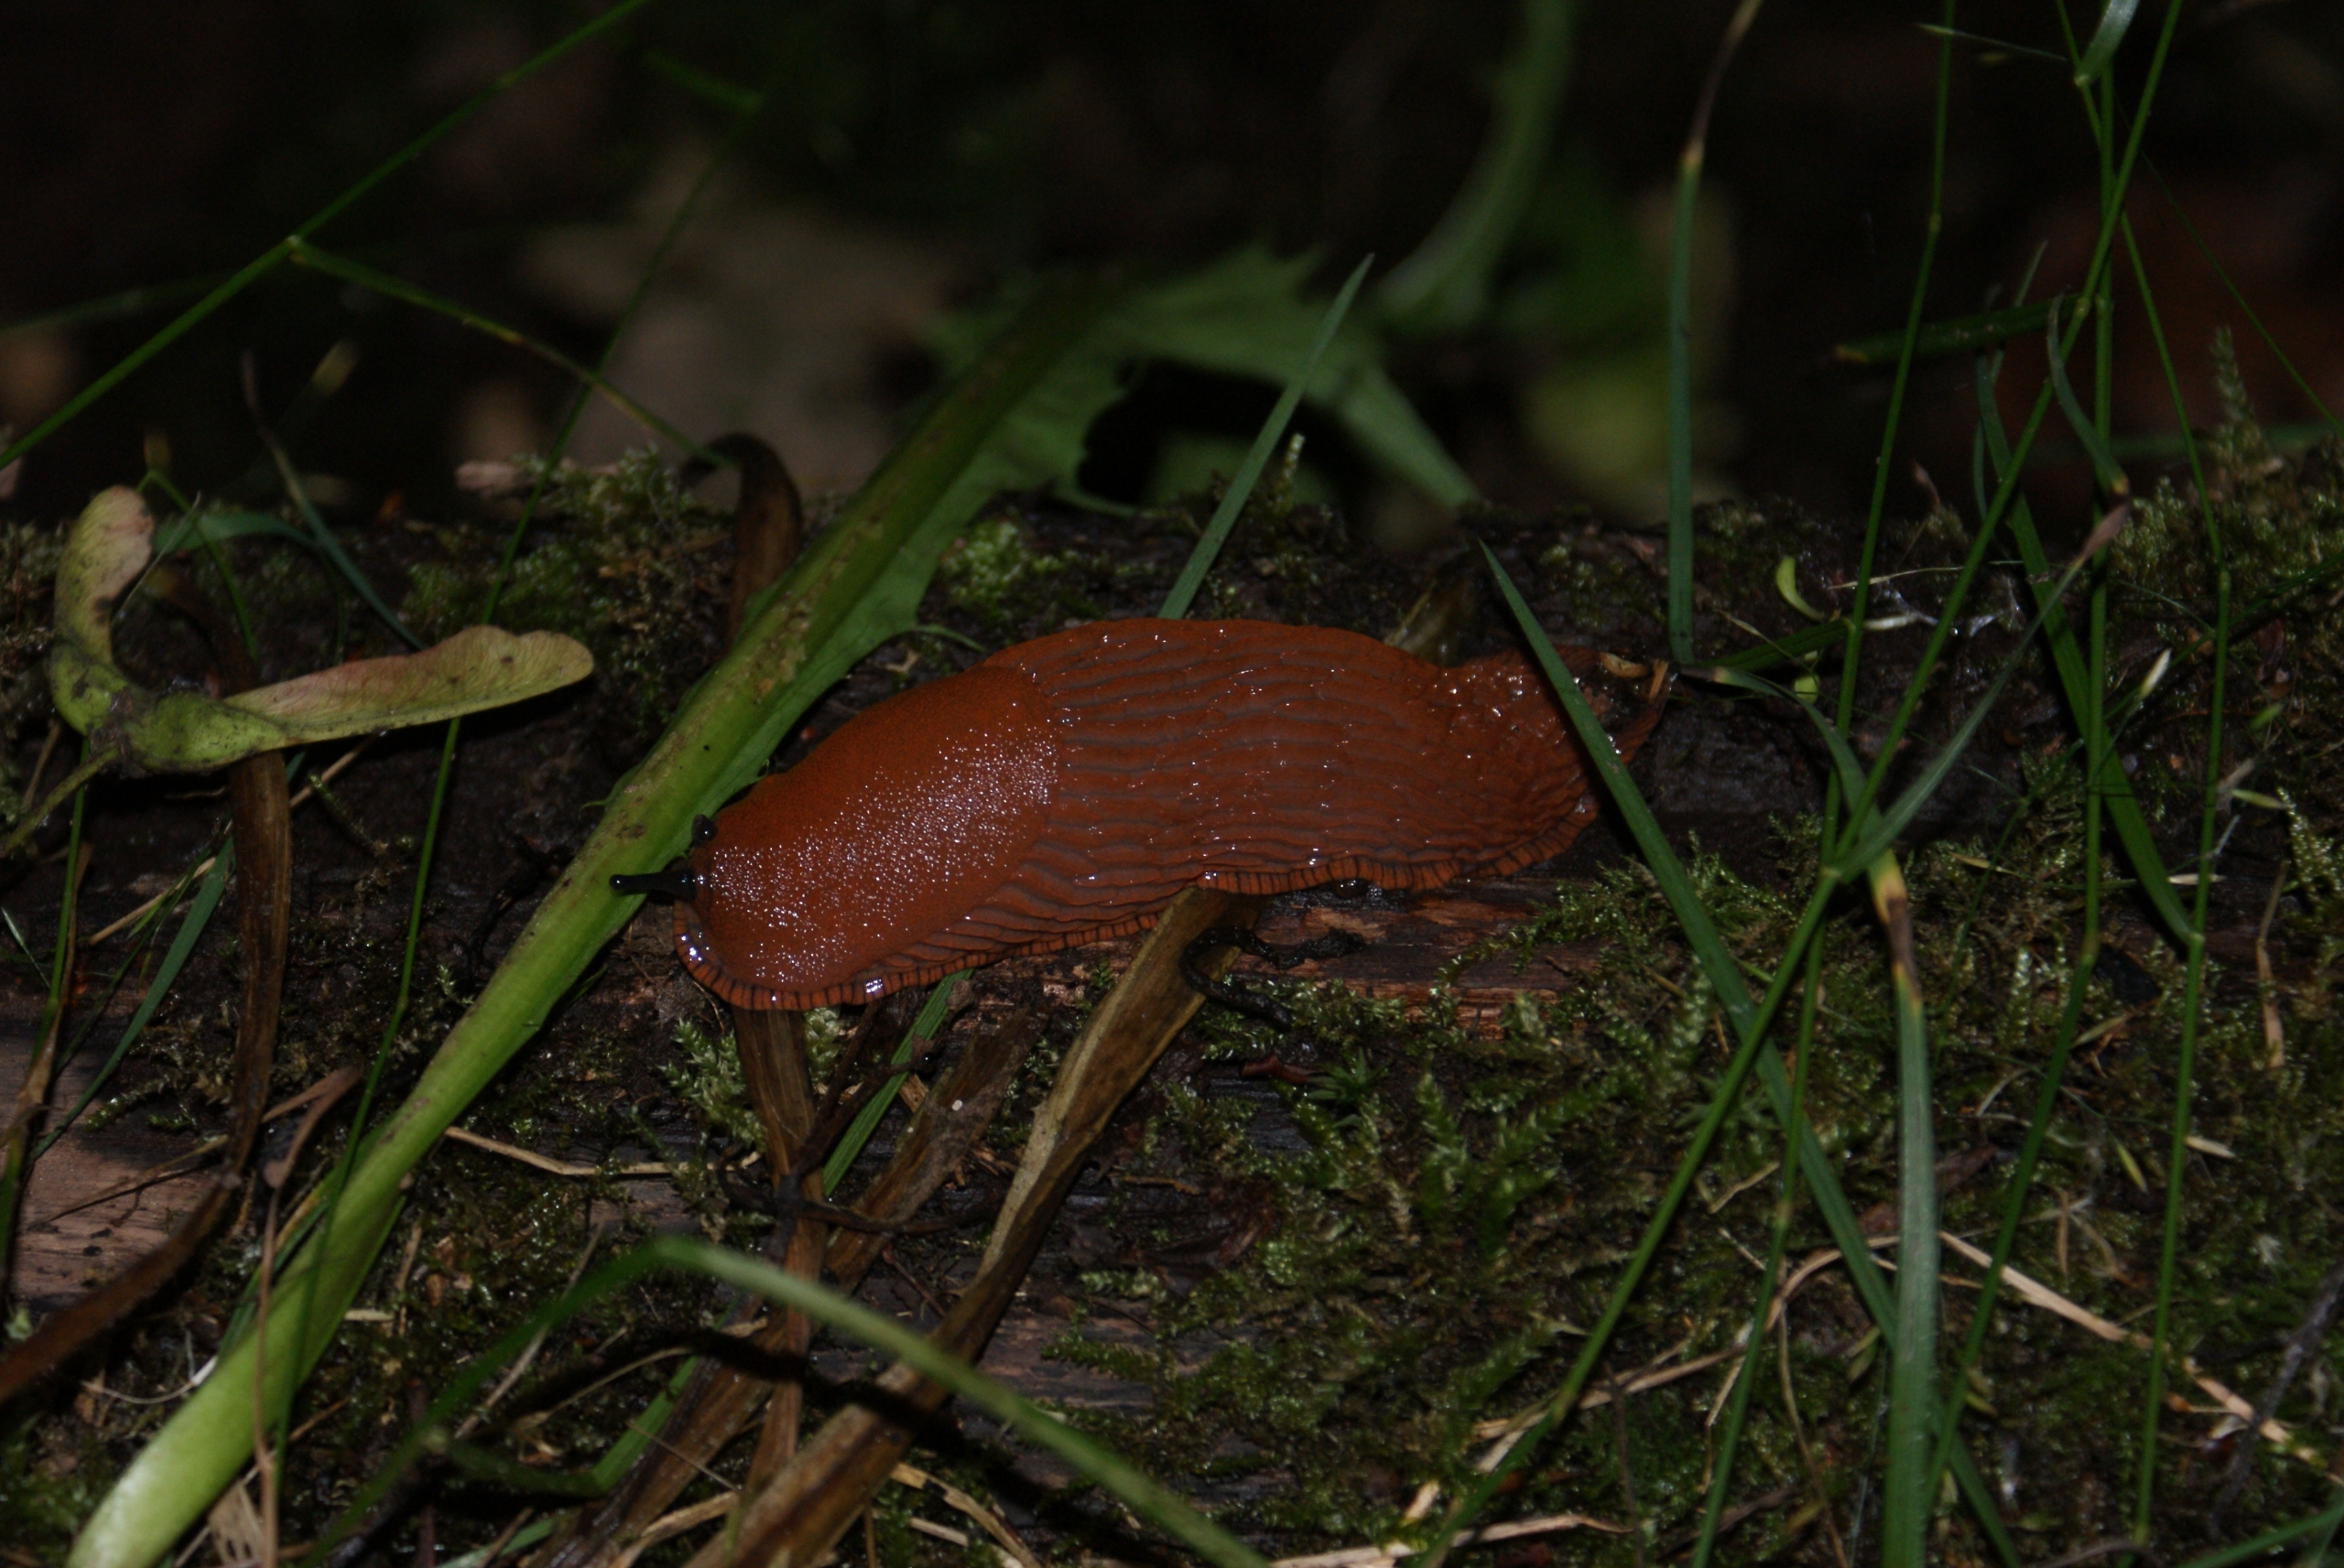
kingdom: Animalia
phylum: Mollusca
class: Gastropoda
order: Stylommatophora
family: Arionidae
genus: Arion
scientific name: Arion rufus
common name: Rød skovsnegl
